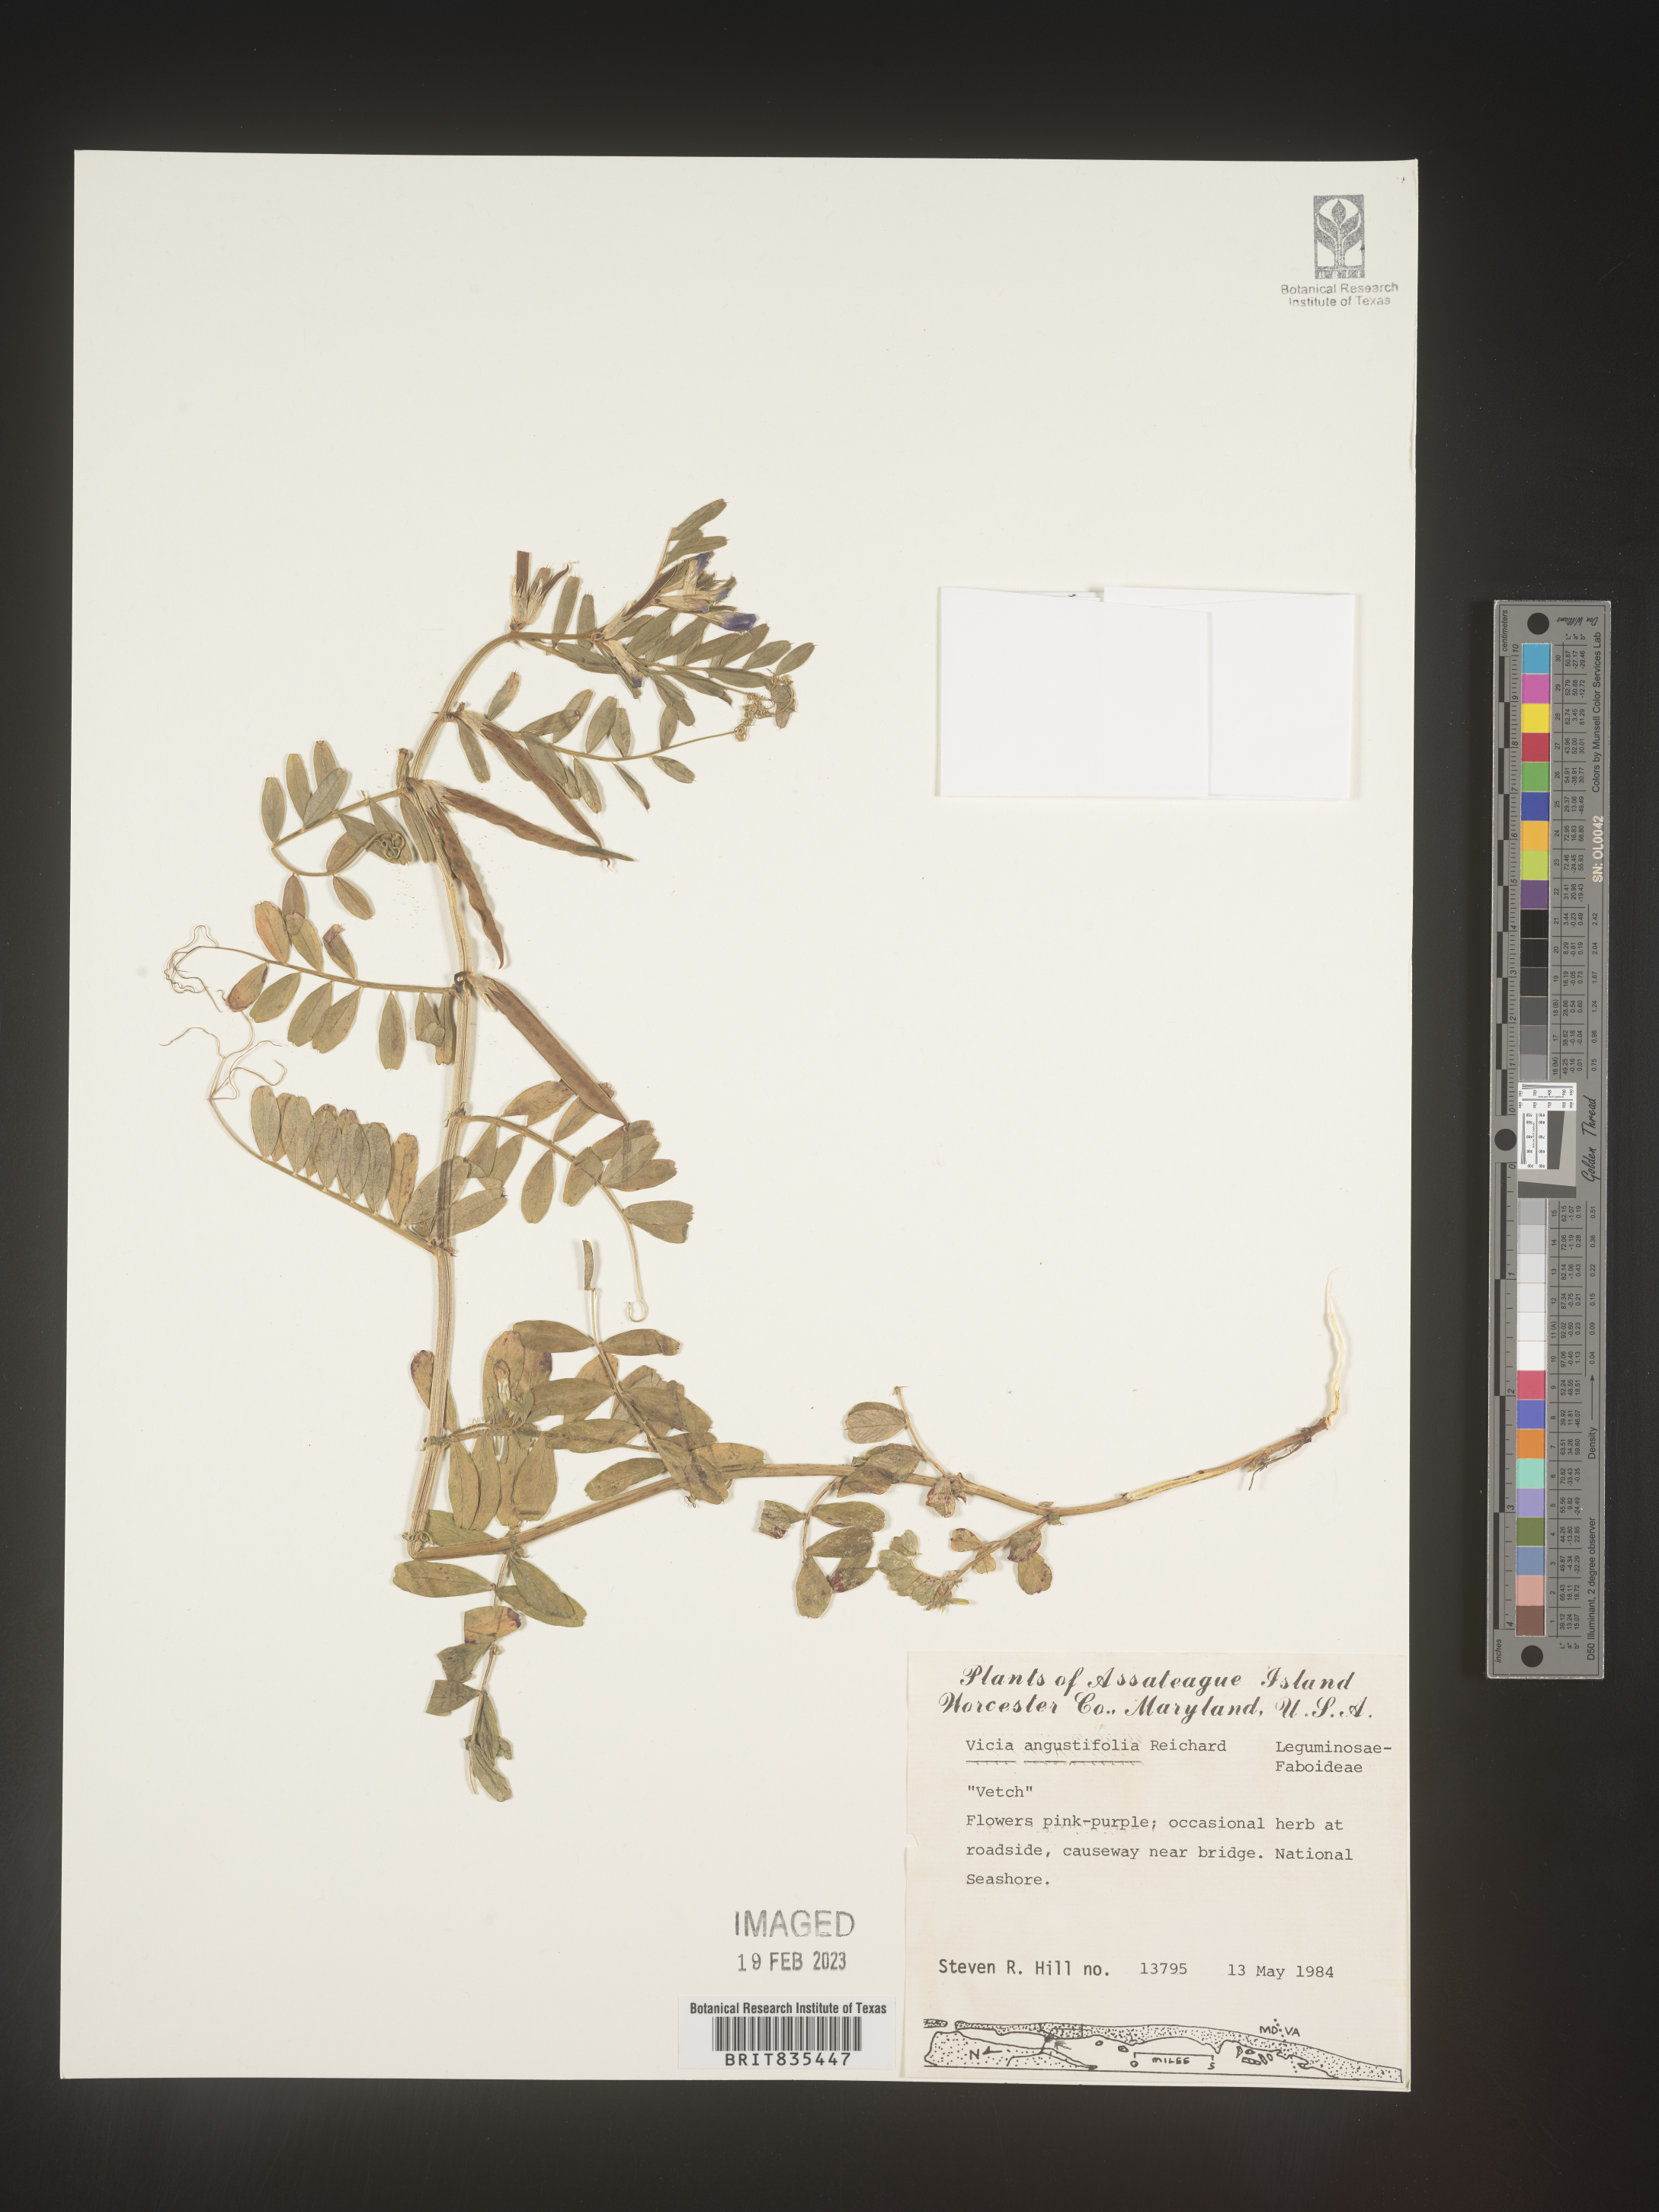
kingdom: Plantae
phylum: Tracheophyta
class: Magnoliopsida
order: Fabales
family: Fabaceae
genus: Vicia
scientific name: Vicia sativa
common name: Garden vetch
